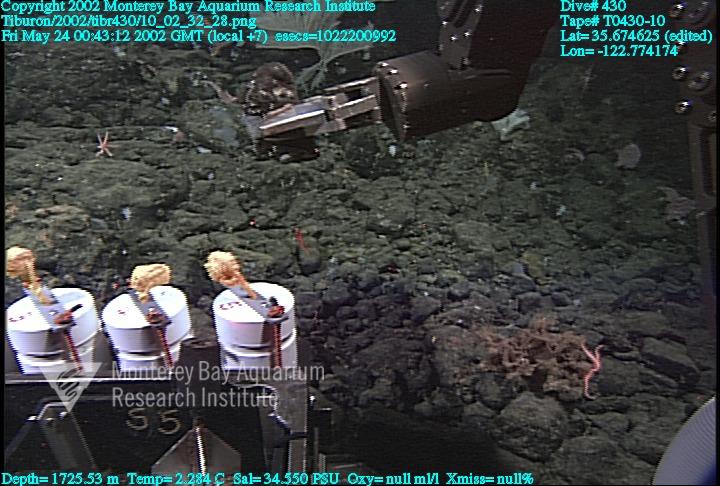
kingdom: Animalia
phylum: Porifera
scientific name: Porifera
